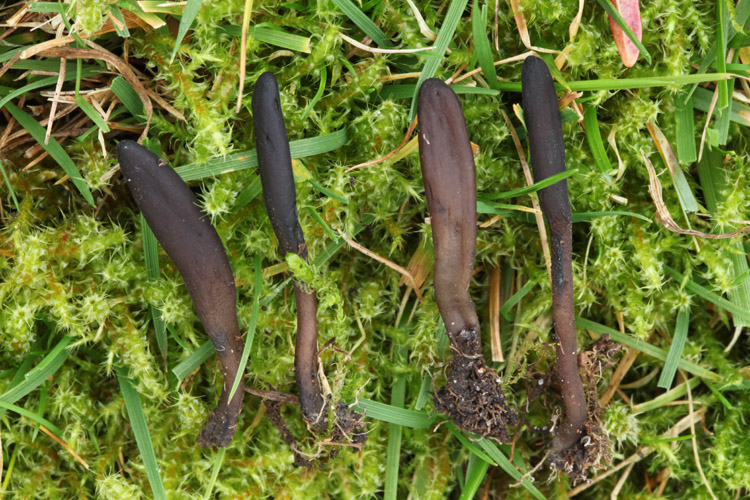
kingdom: Fungi
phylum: Ascomycota
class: Geoglossomycetes
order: Geoglossales
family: Geoglossaceae
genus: Geoglossum
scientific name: Geoglossum fallax
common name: småskællet jordtunge
